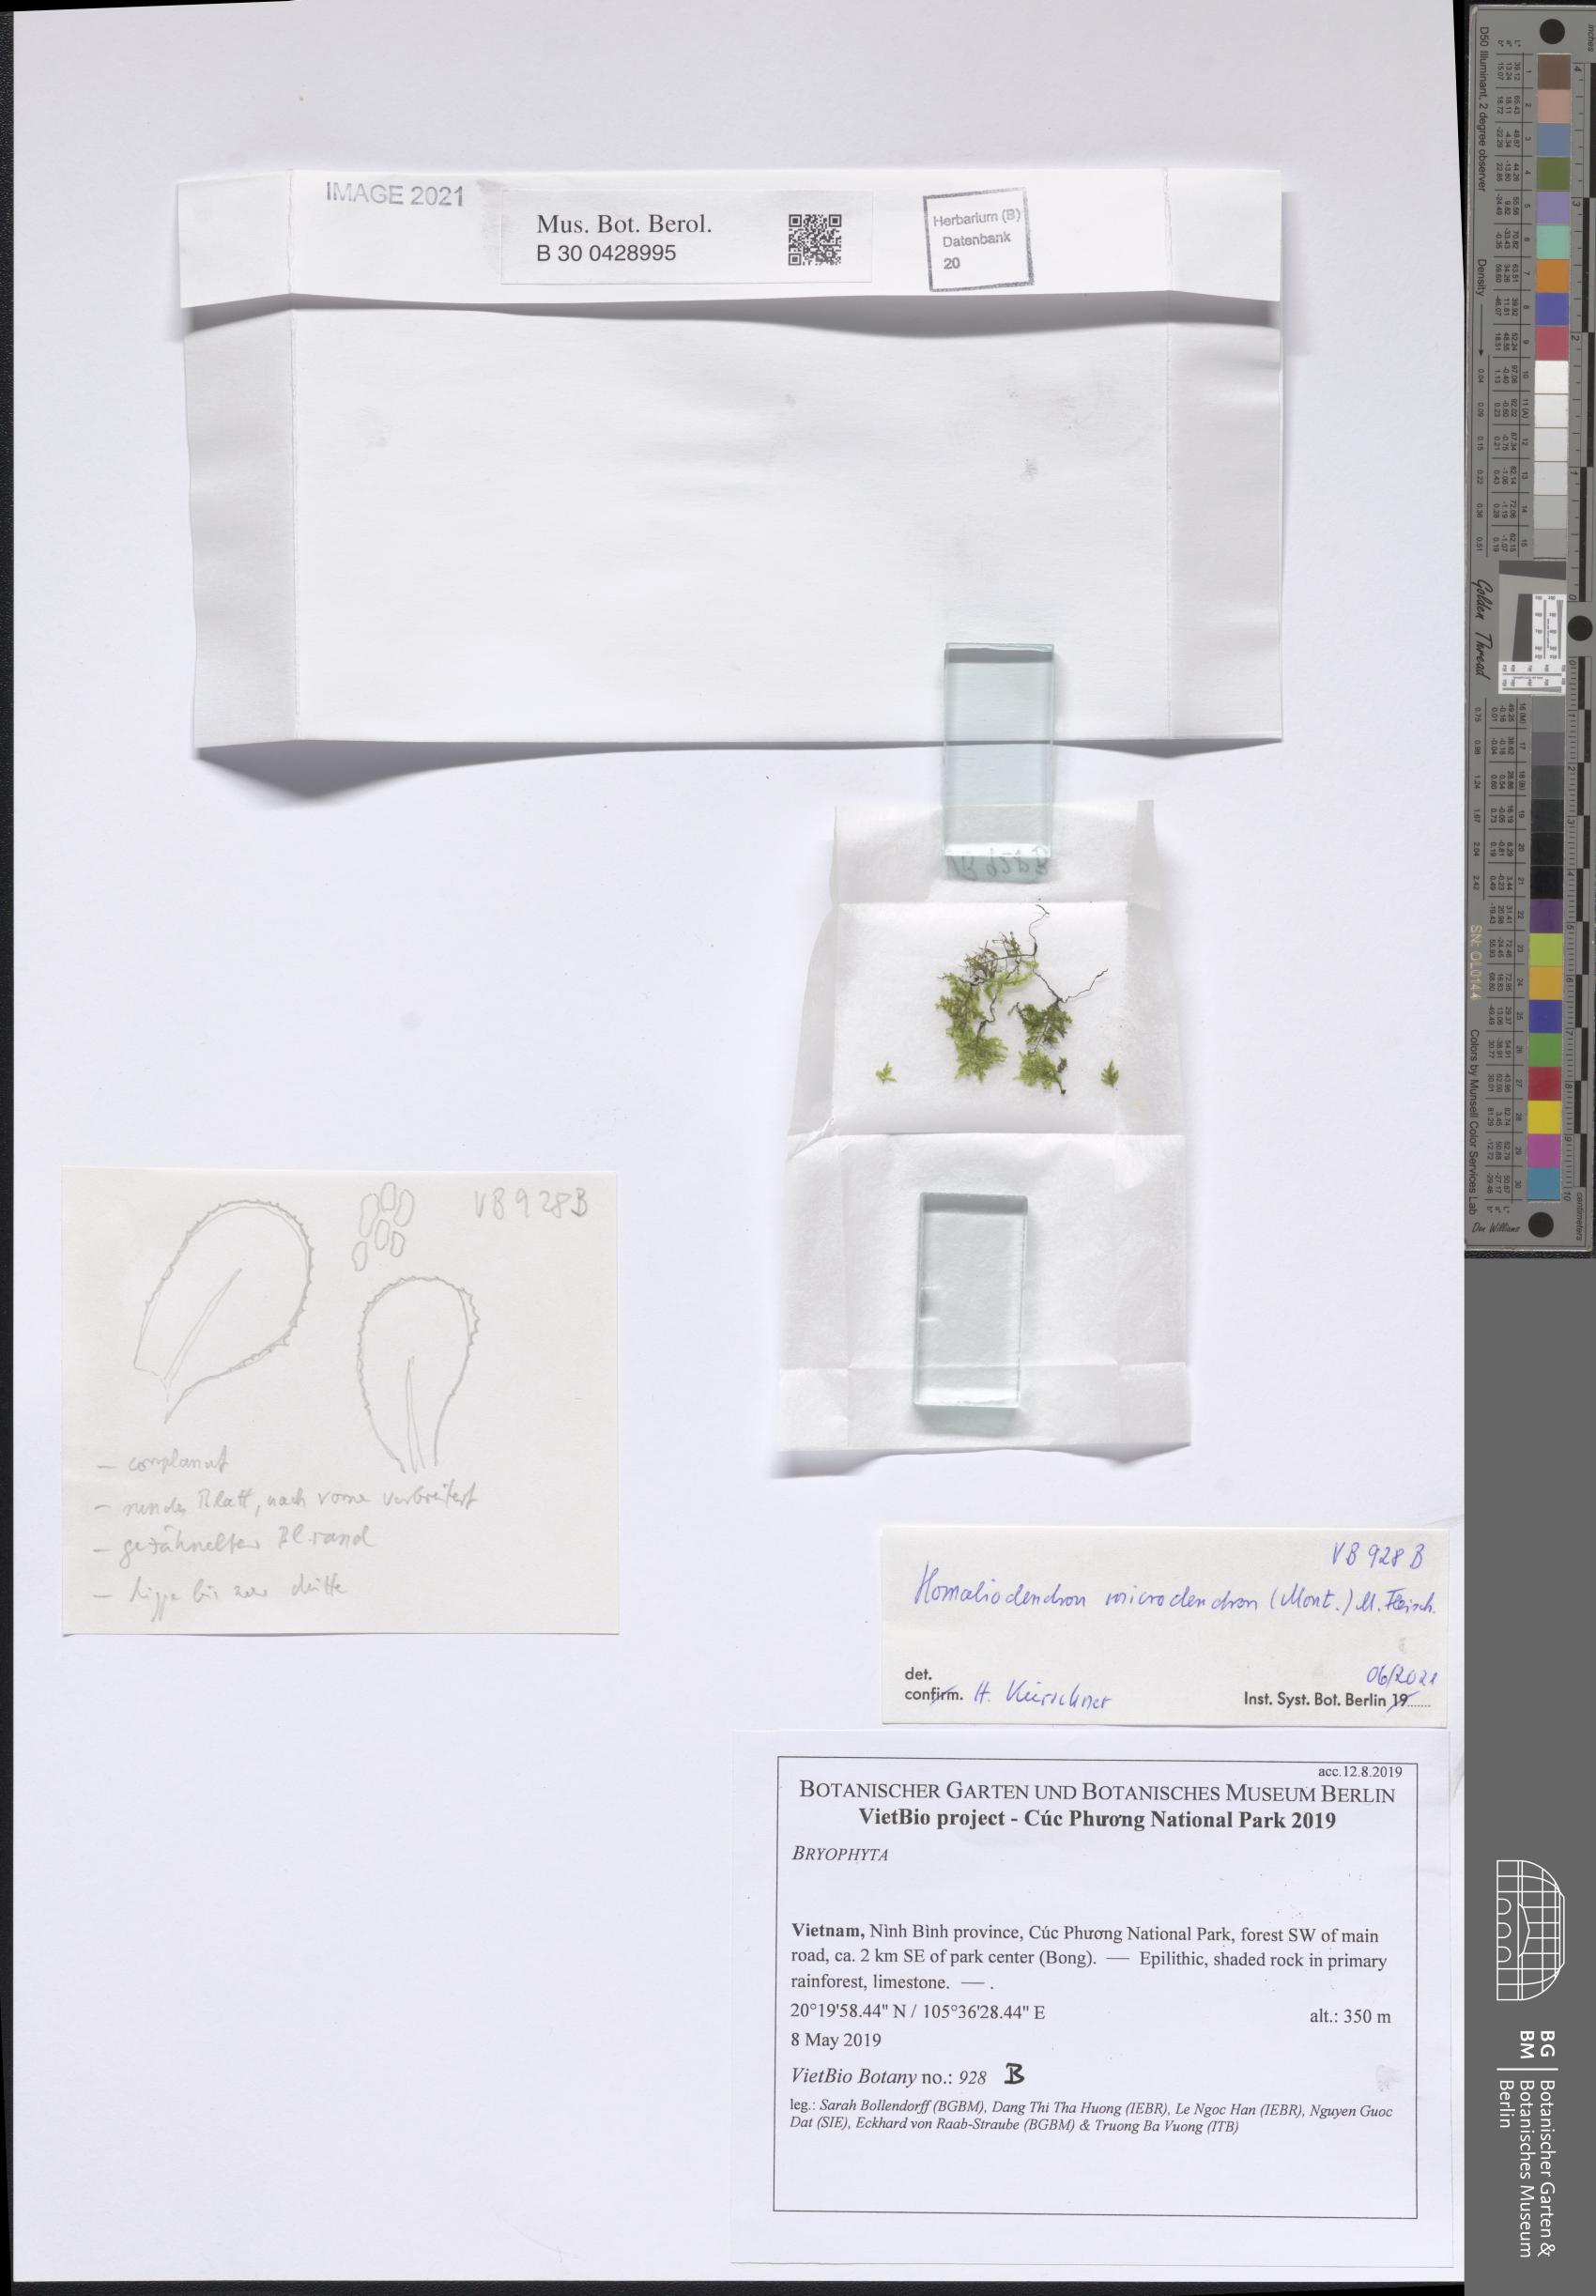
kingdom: Plantae
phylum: Bryophyta
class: Bryopsida
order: Hypnales
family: Neckeraceae
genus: Circulifolium
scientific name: Circulifolium microdendron
